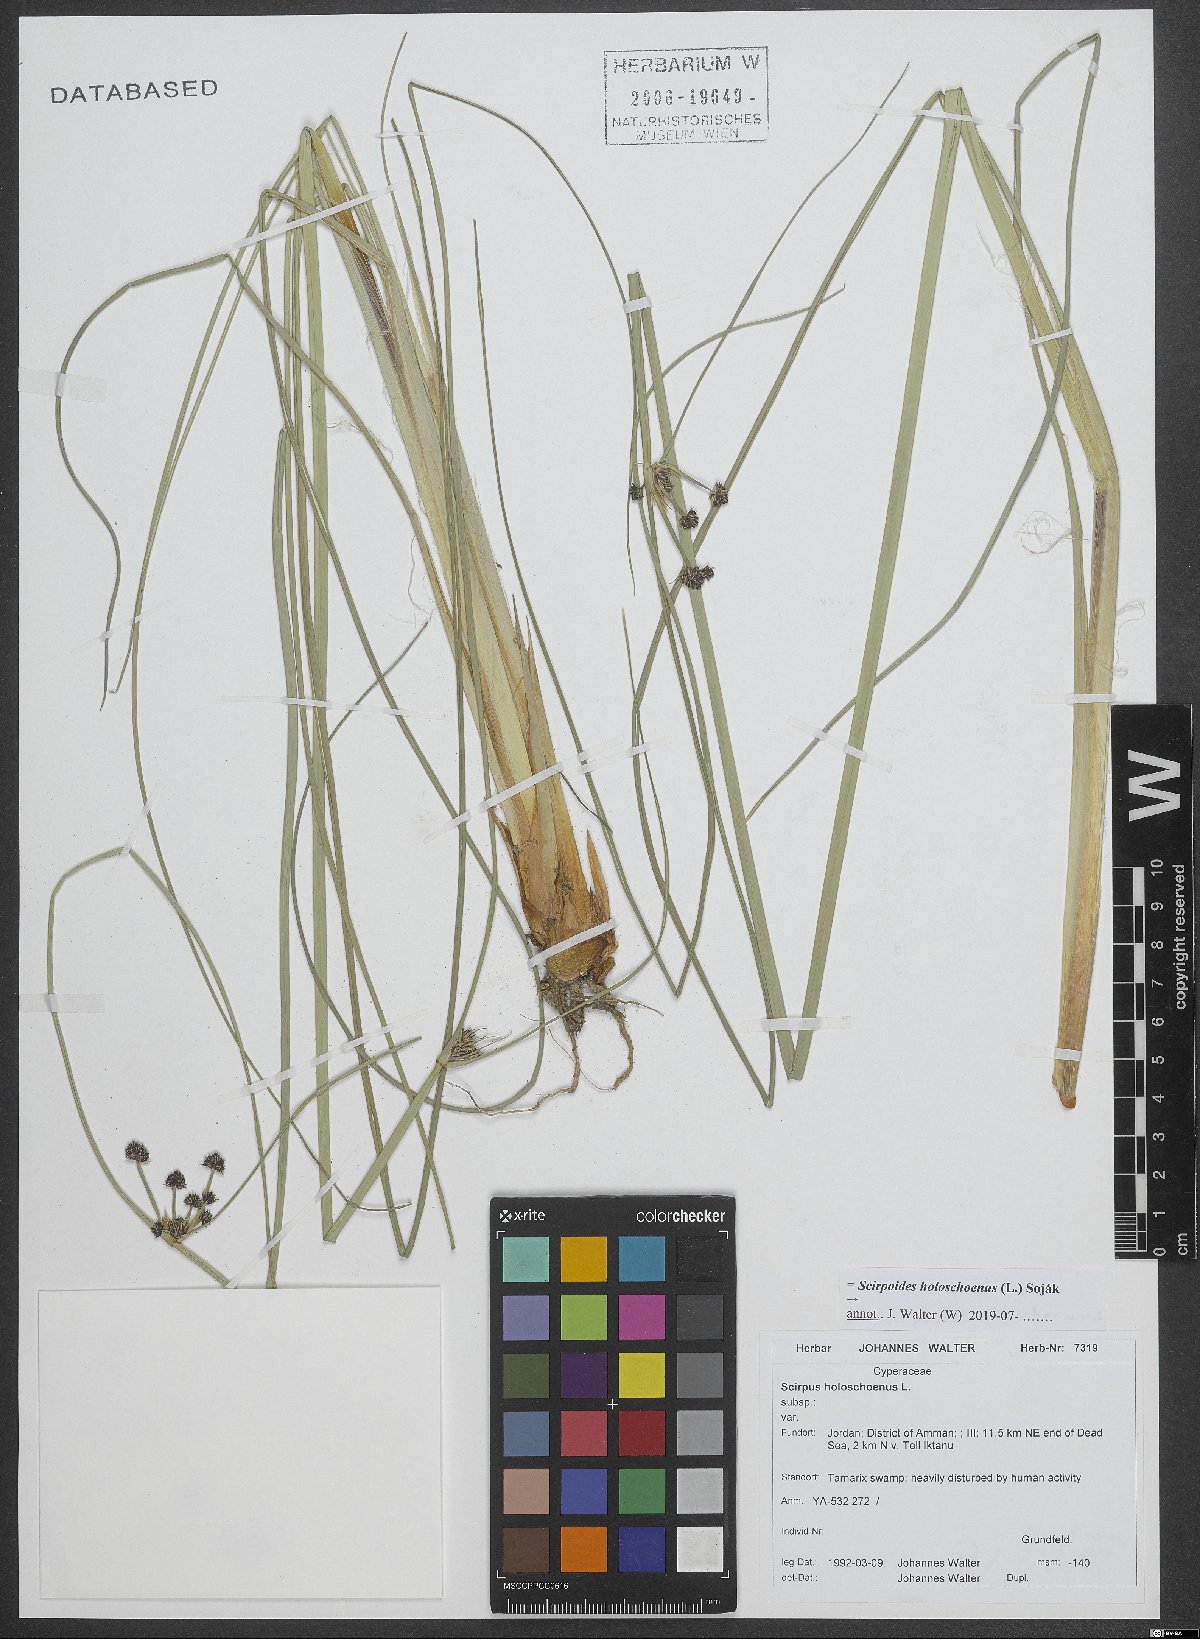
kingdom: Plantae
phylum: Tracheophyta
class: Liliopsida
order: Poales
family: Cyperaceae
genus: Scirpoides
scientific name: Scirpoides holoschoenus
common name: Round-headed club-rush
